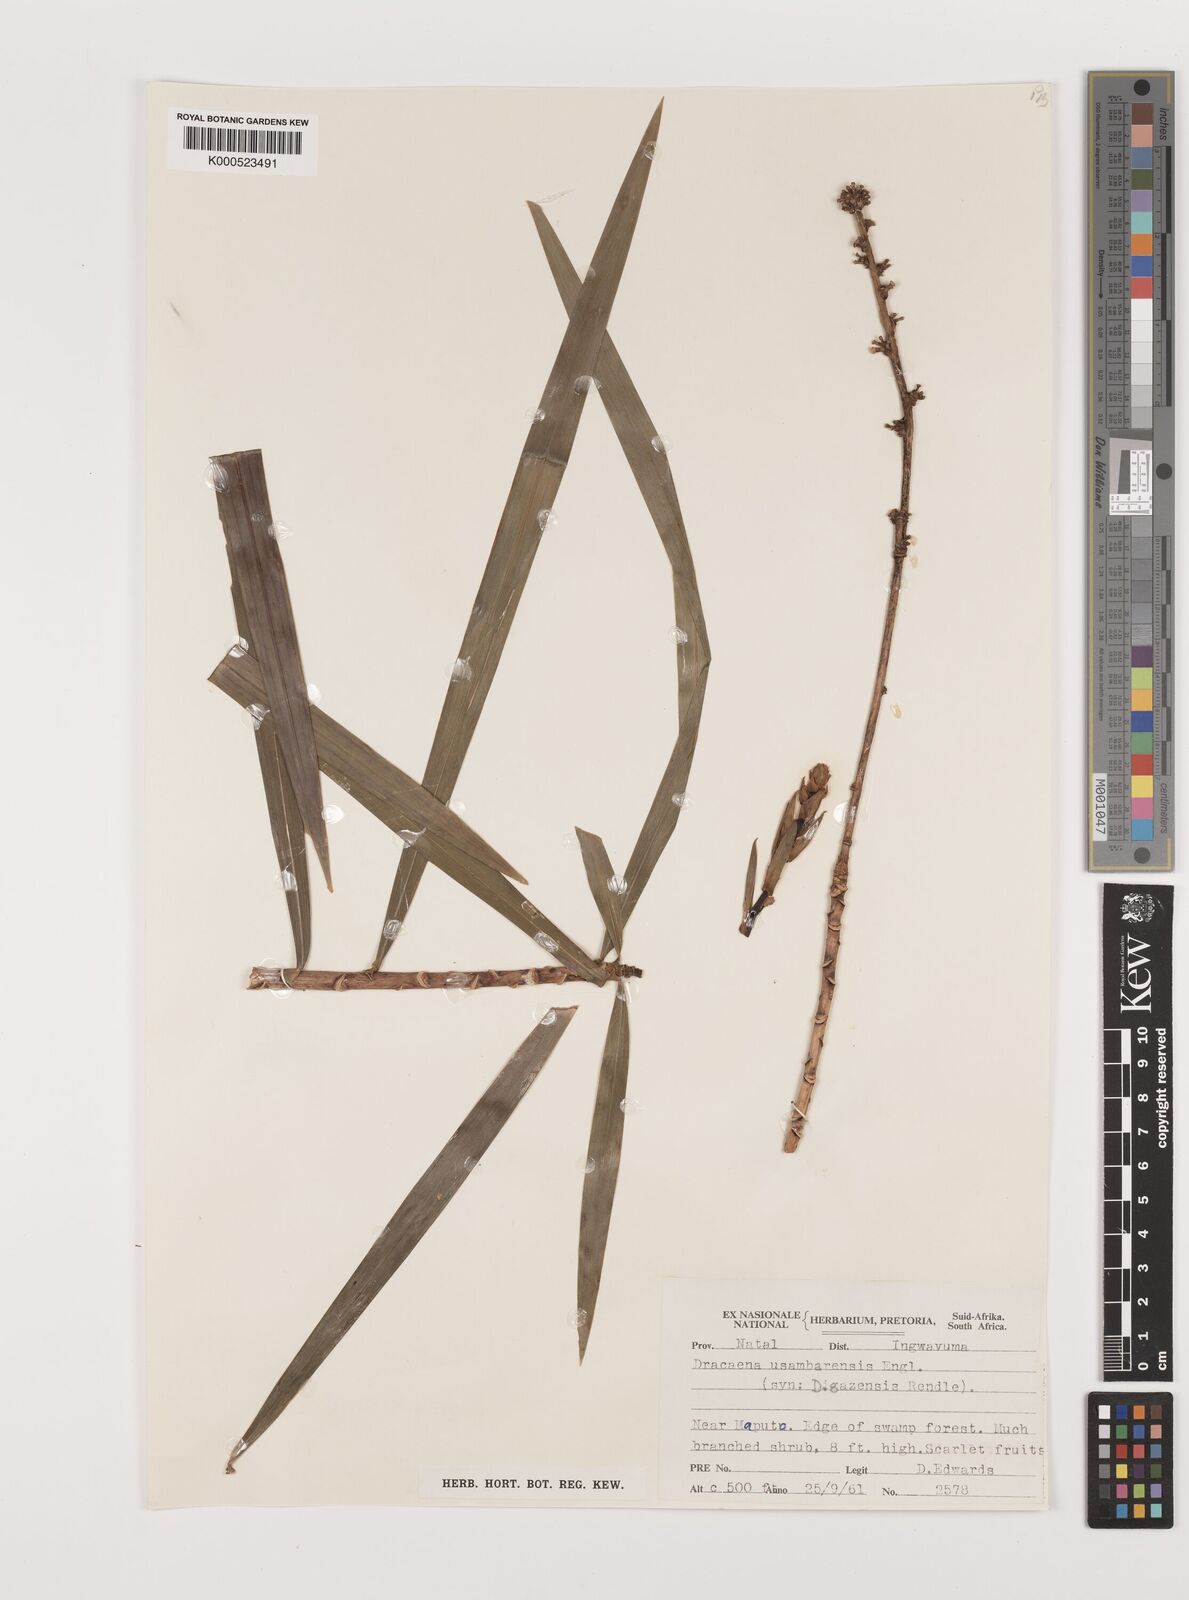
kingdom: Plantae
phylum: Tracheophyta
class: Liliopsida
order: Asparagales
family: Asparagaceae
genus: Dracaena
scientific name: Dracaena usambarensis
